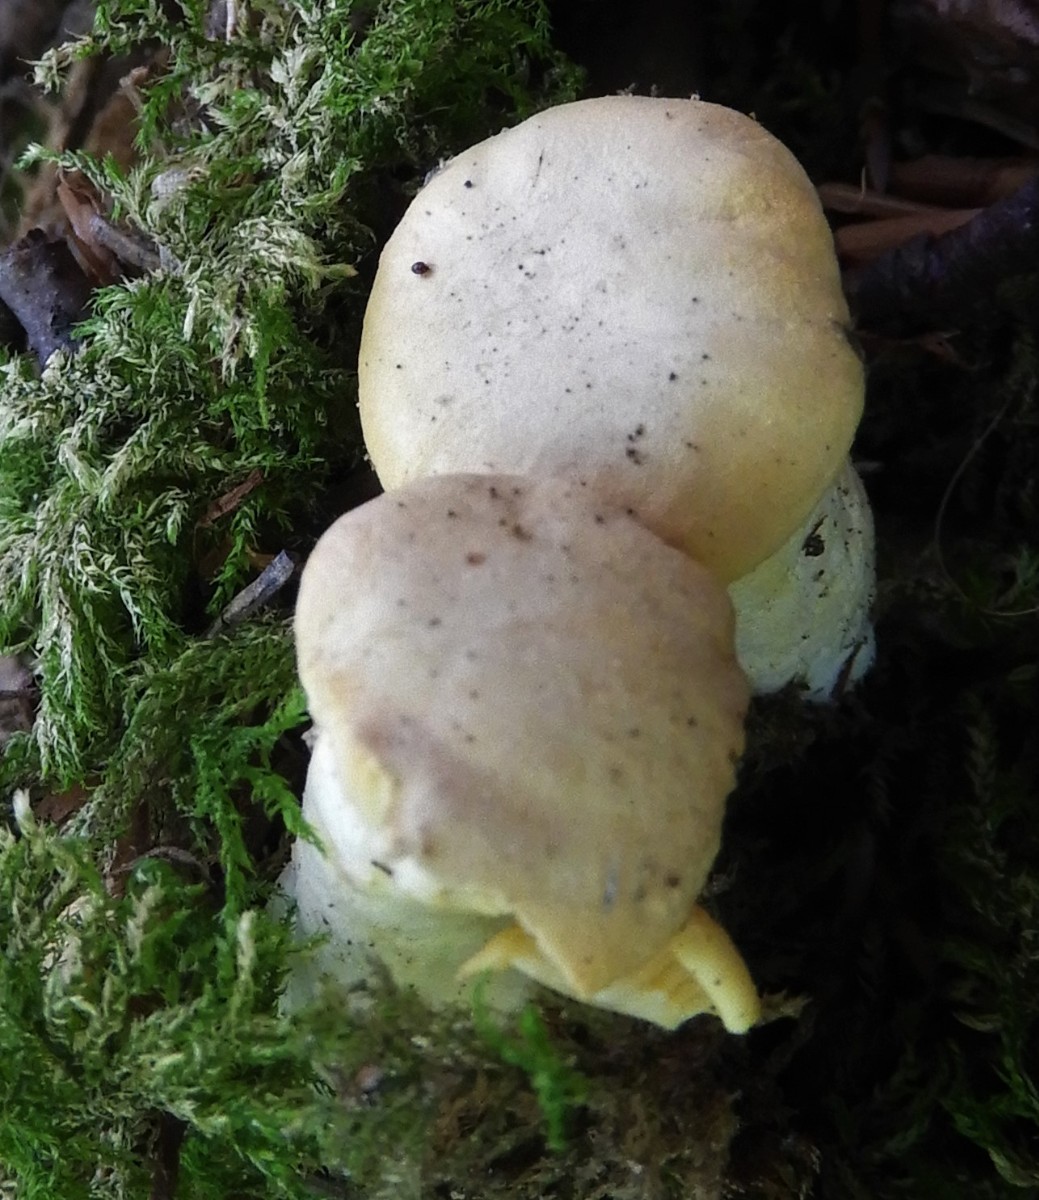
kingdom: Fungi
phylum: Basidiomycota
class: Agaricomycetes
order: Cantharellales
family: Hydnaceae
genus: Cantharellus
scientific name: Cantharellus pallens
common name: bleg kantarel
